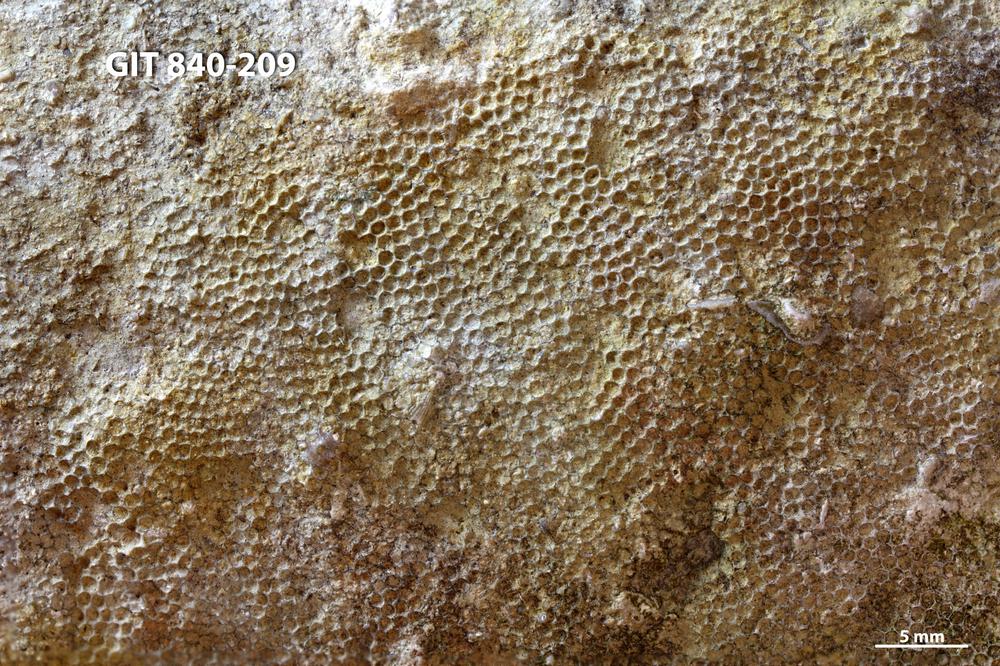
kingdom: Animalia
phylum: Cnidaria
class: Anthozoa
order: Heliolitina
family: Proheliolitidae
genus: Protoheliolites
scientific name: Protoheliolites
